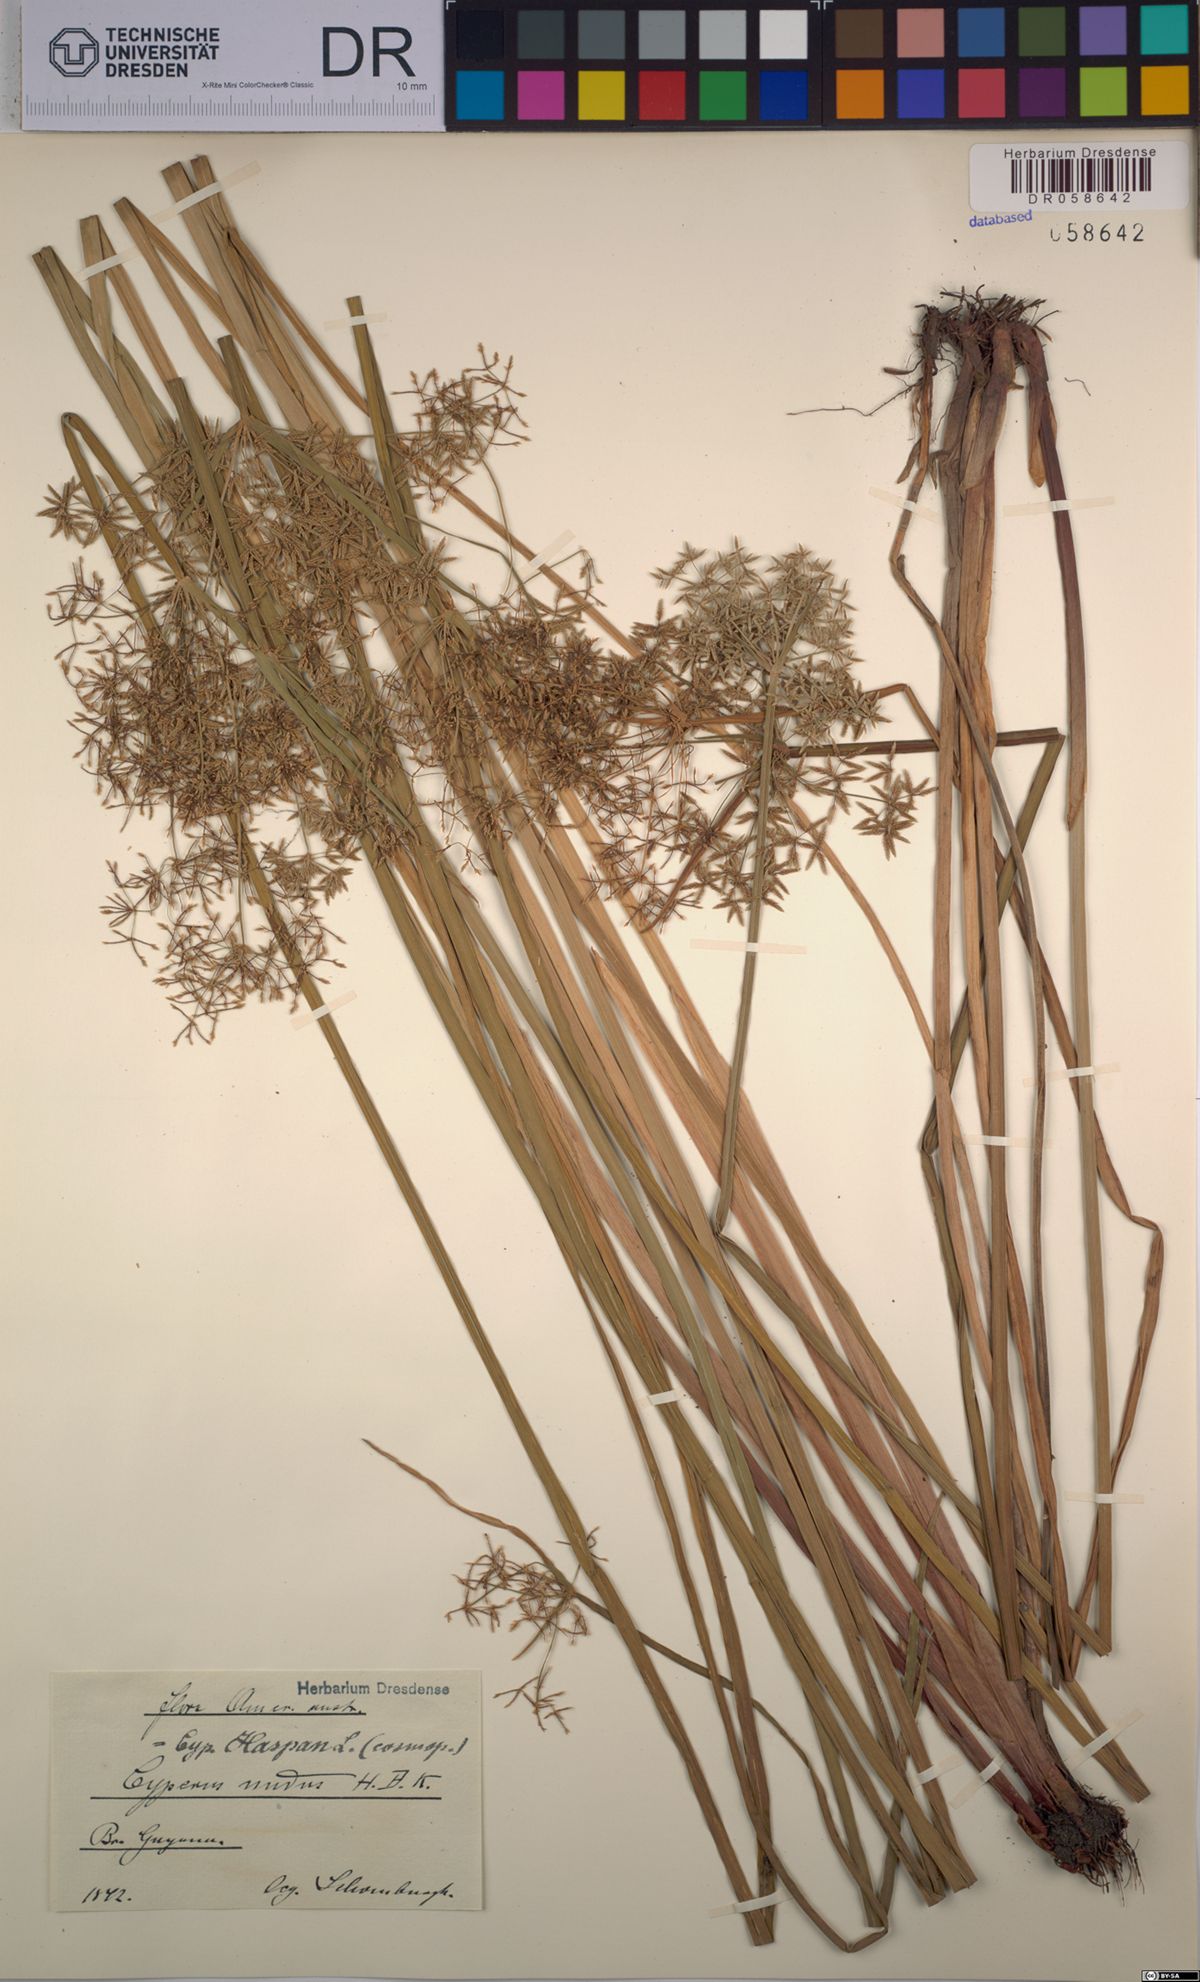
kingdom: Plantae
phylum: Tracheophyta
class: Liliopsida
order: Poales
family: Cyperaceae
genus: Cyperus
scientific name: Cyperus haspan
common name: Haspan flatsedge
